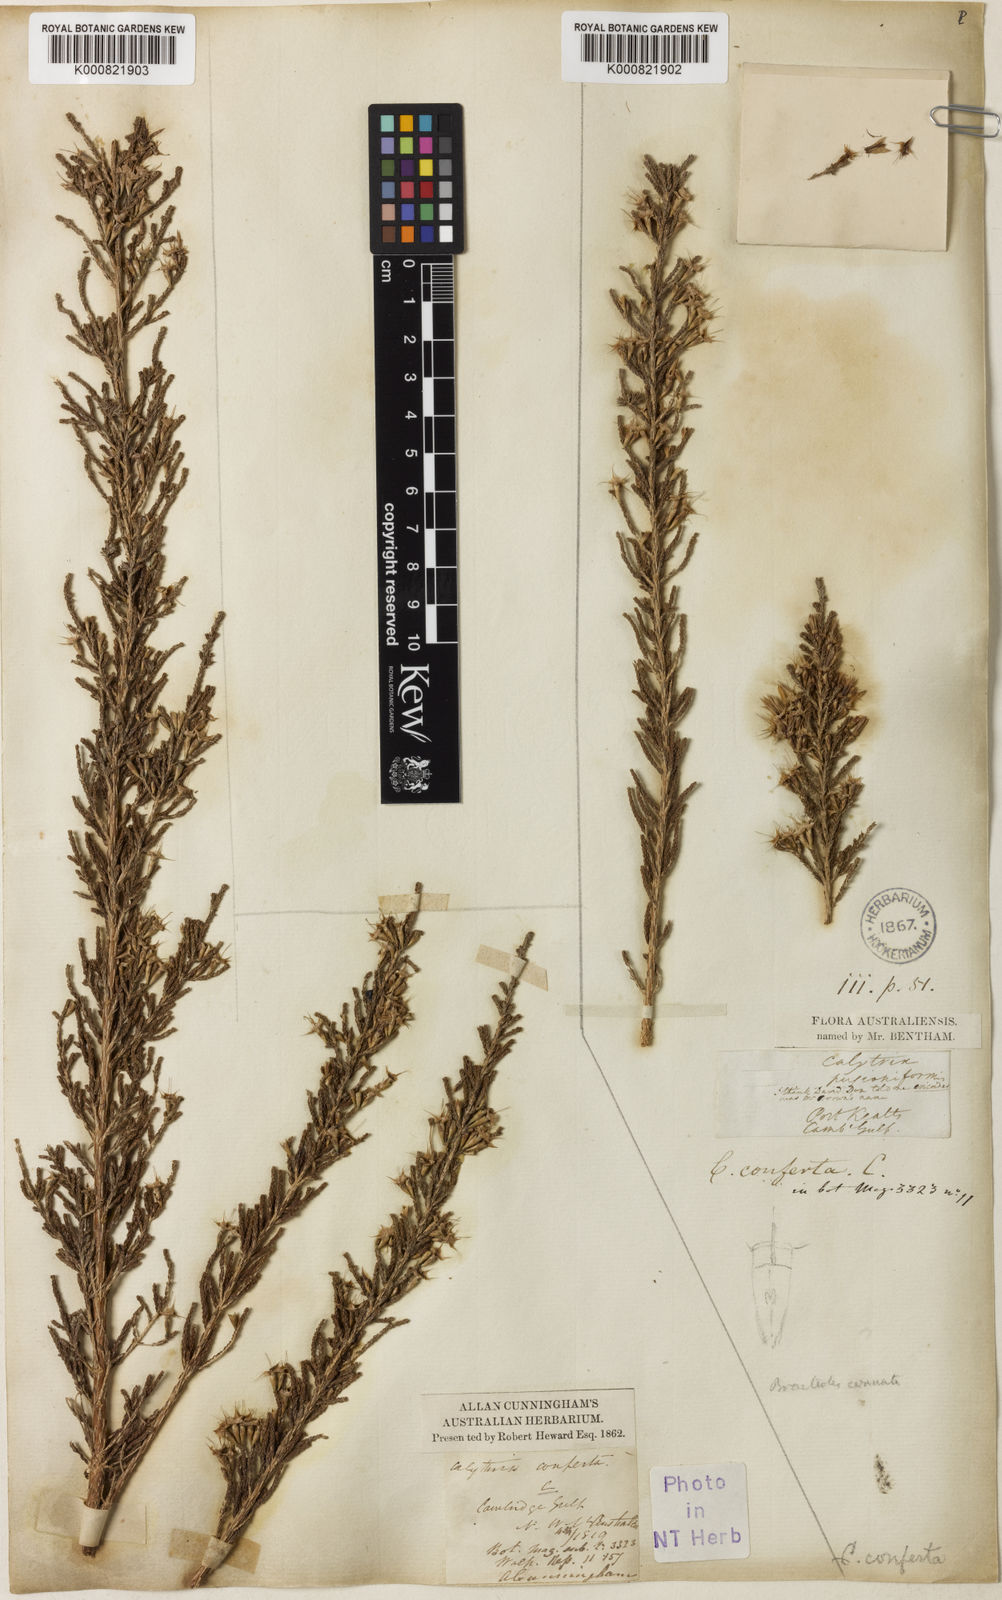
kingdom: Plantae
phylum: Tracheophyta
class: Magnoliopsida
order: Myrtales
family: Myrtaceae
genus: Calytrix
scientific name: Calytrix exstipulata
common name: Kimberley heather
